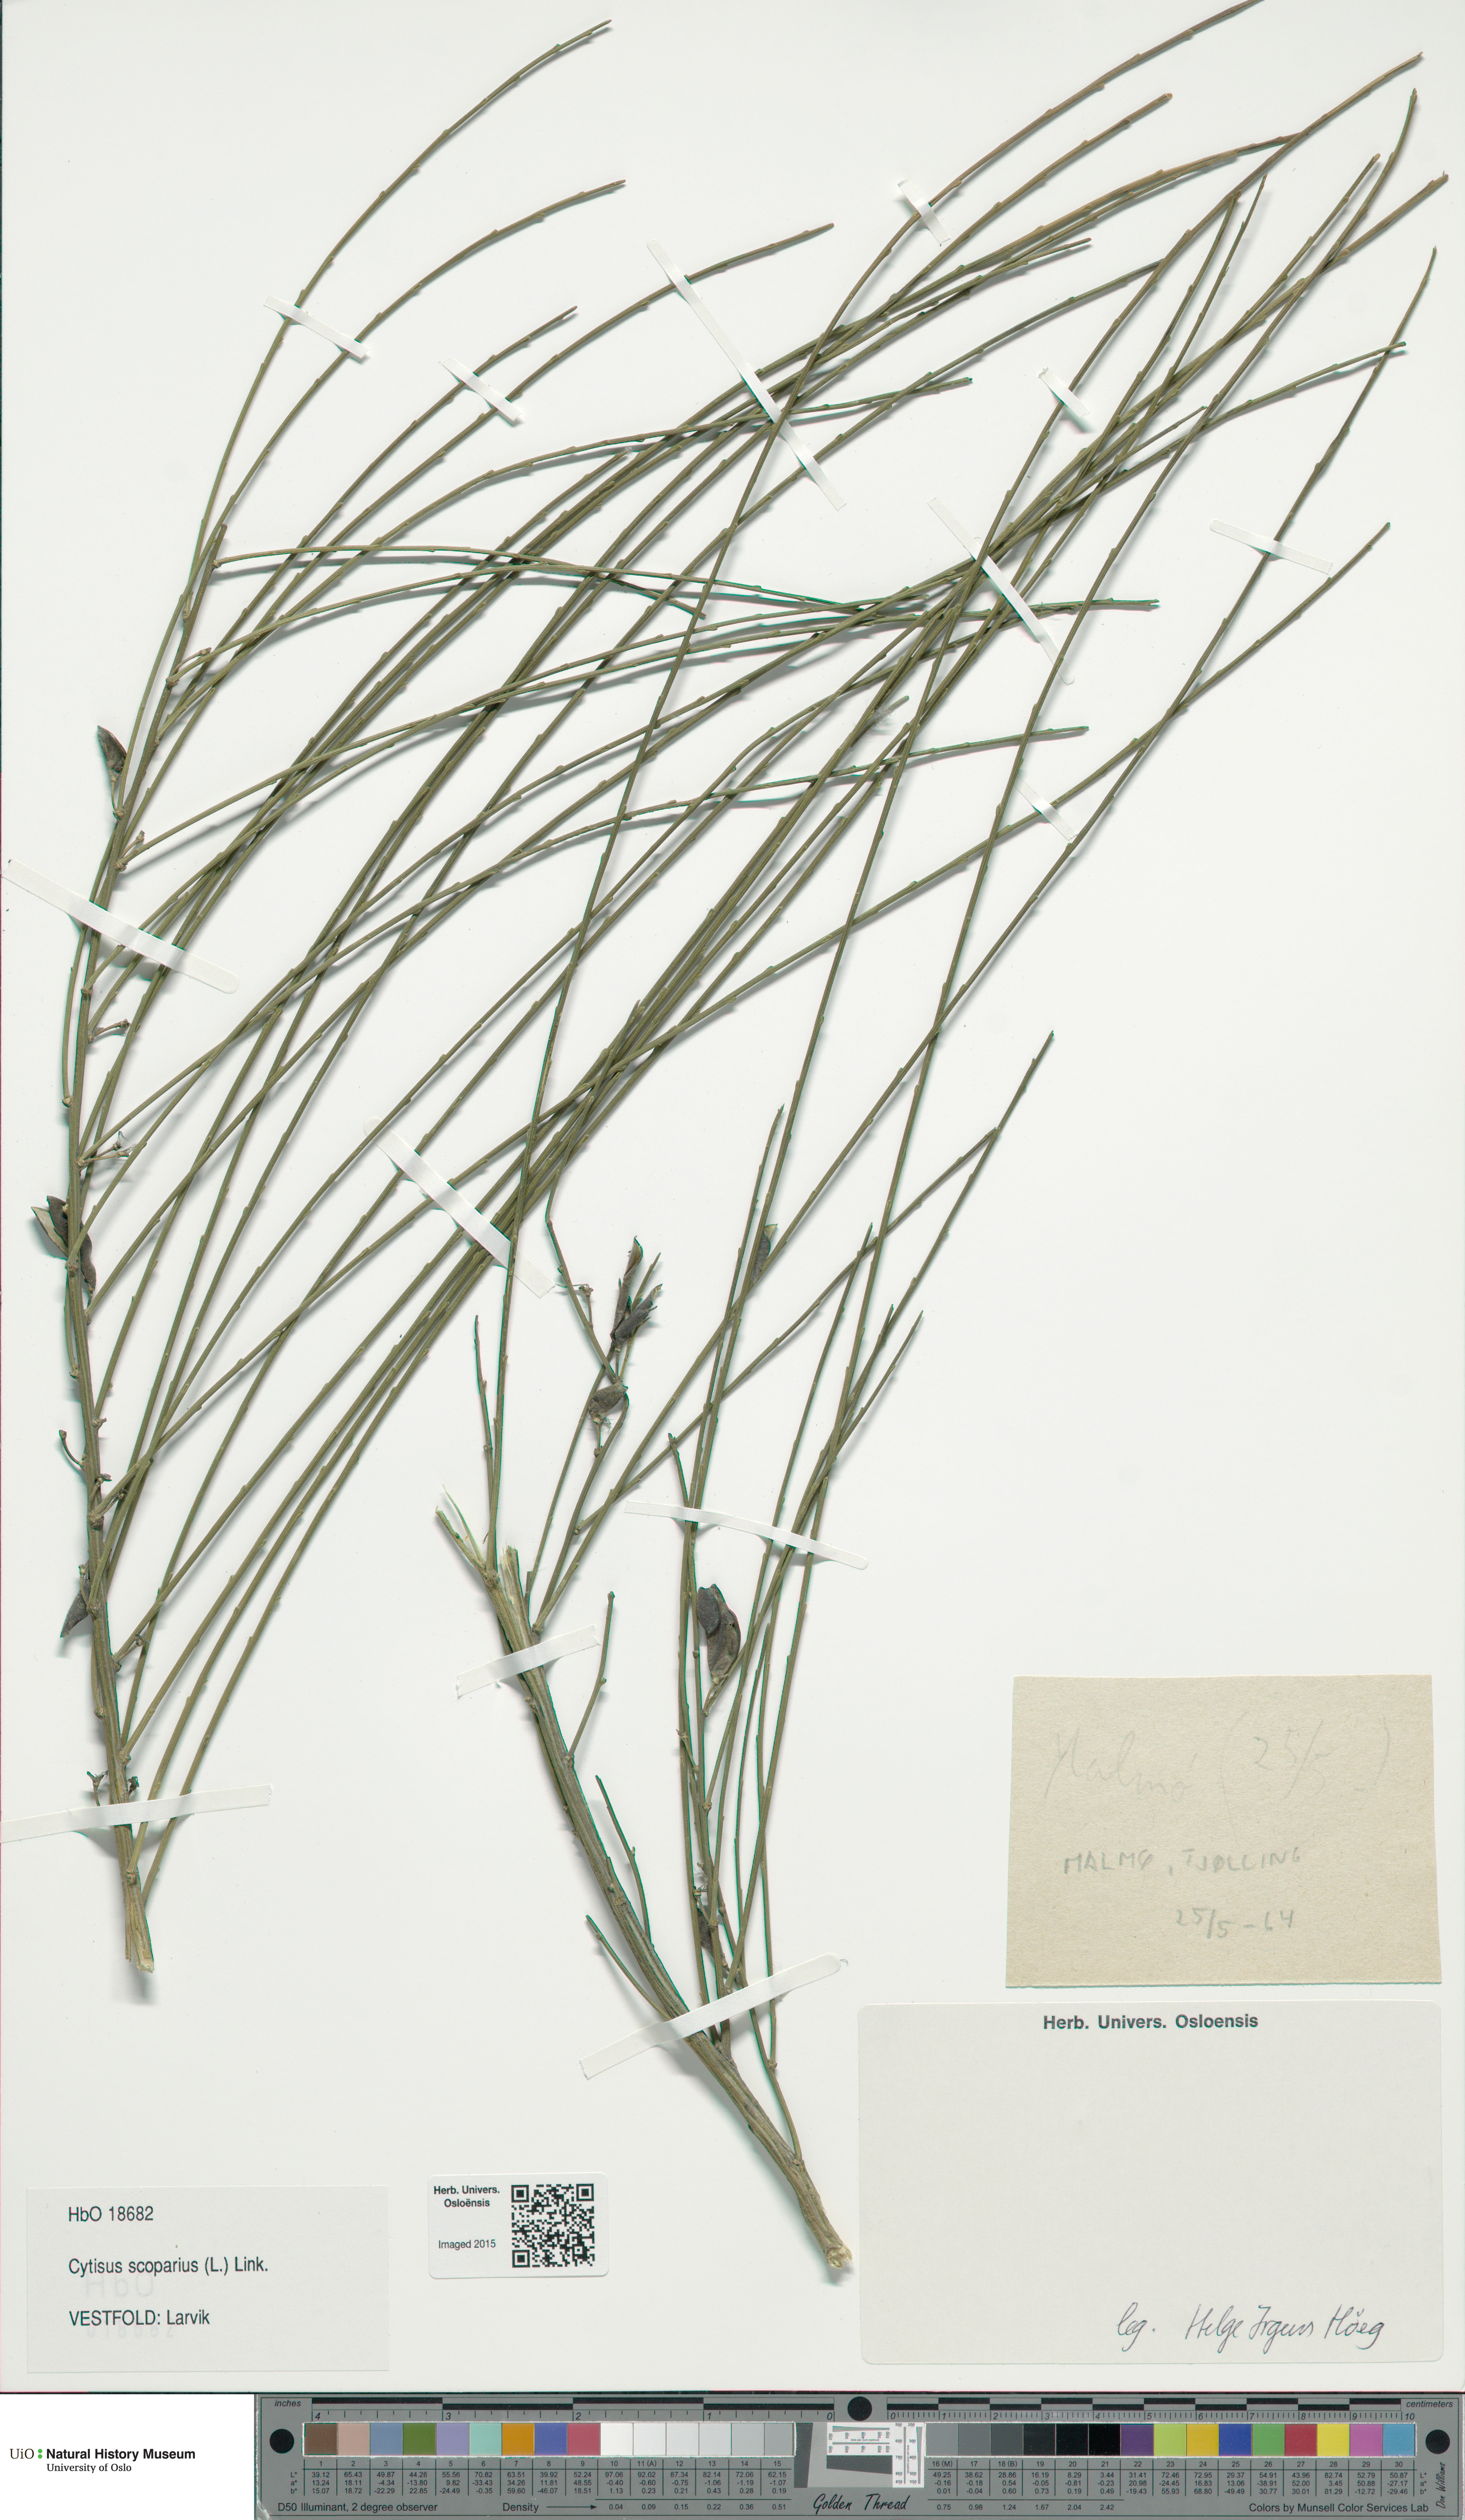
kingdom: Plantae
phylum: Tracheophyta
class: Magnoliopsida
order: Fabales
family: Fabaceae
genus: Cytisus
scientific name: Cytisus scoparius
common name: Scotch broom
